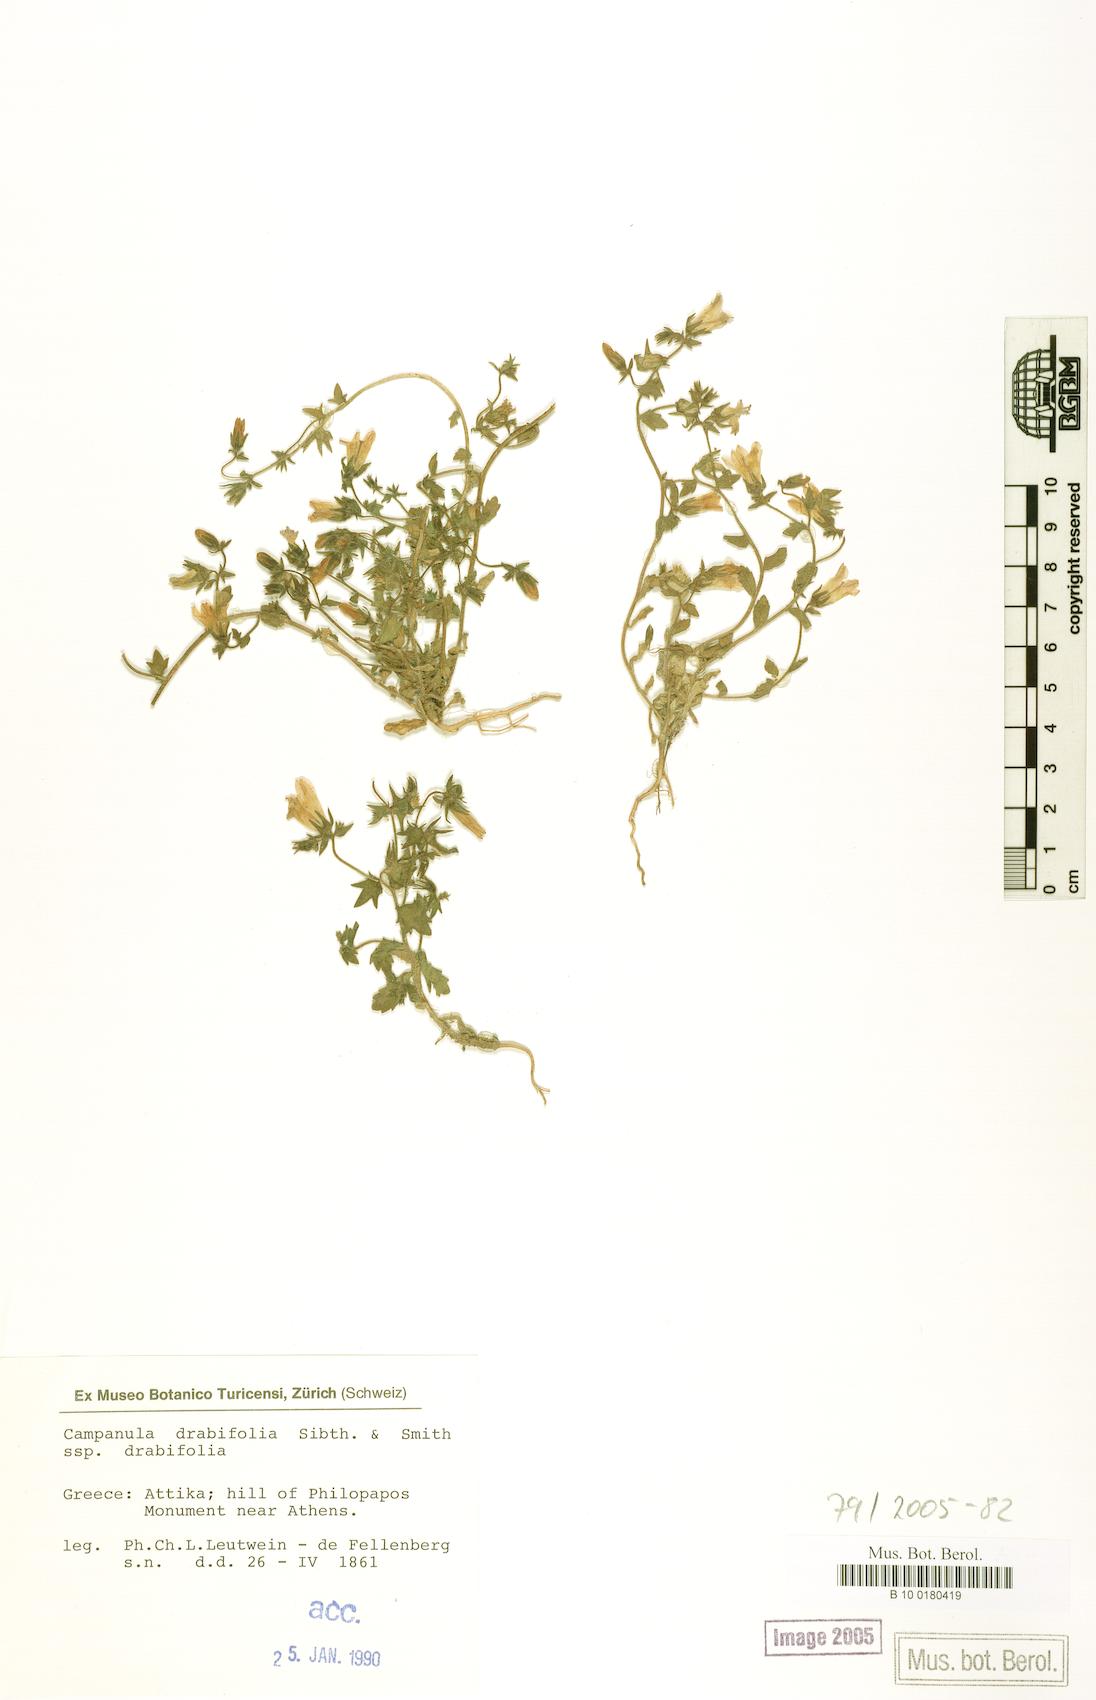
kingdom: Plantae
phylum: Tracheophyta
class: Magnoliopsida
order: Asterales
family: Campanulaceae
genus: Campanula
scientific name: Campanula drabifolia
